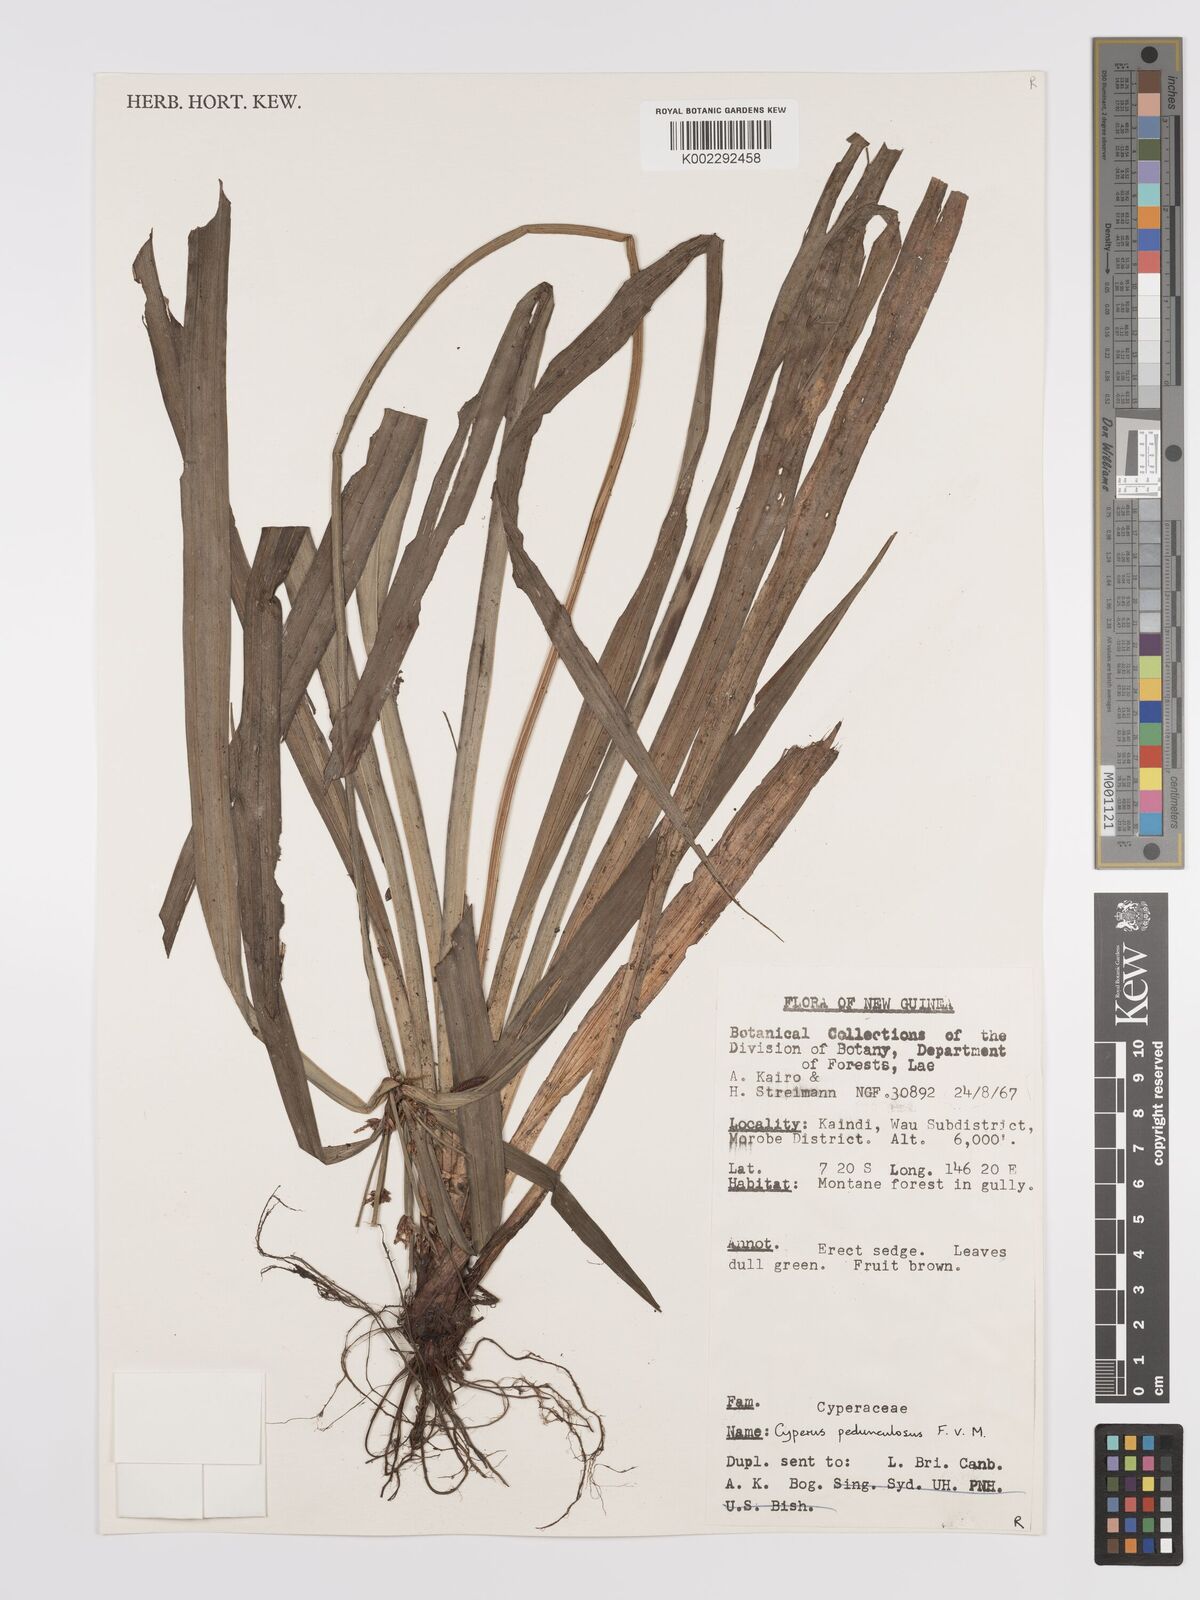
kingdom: Plantae
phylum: Tracheophyta
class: Liliopsida
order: Poales
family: Cyperaceae
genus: Cyperus
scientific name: Cyperus pedunculosus
